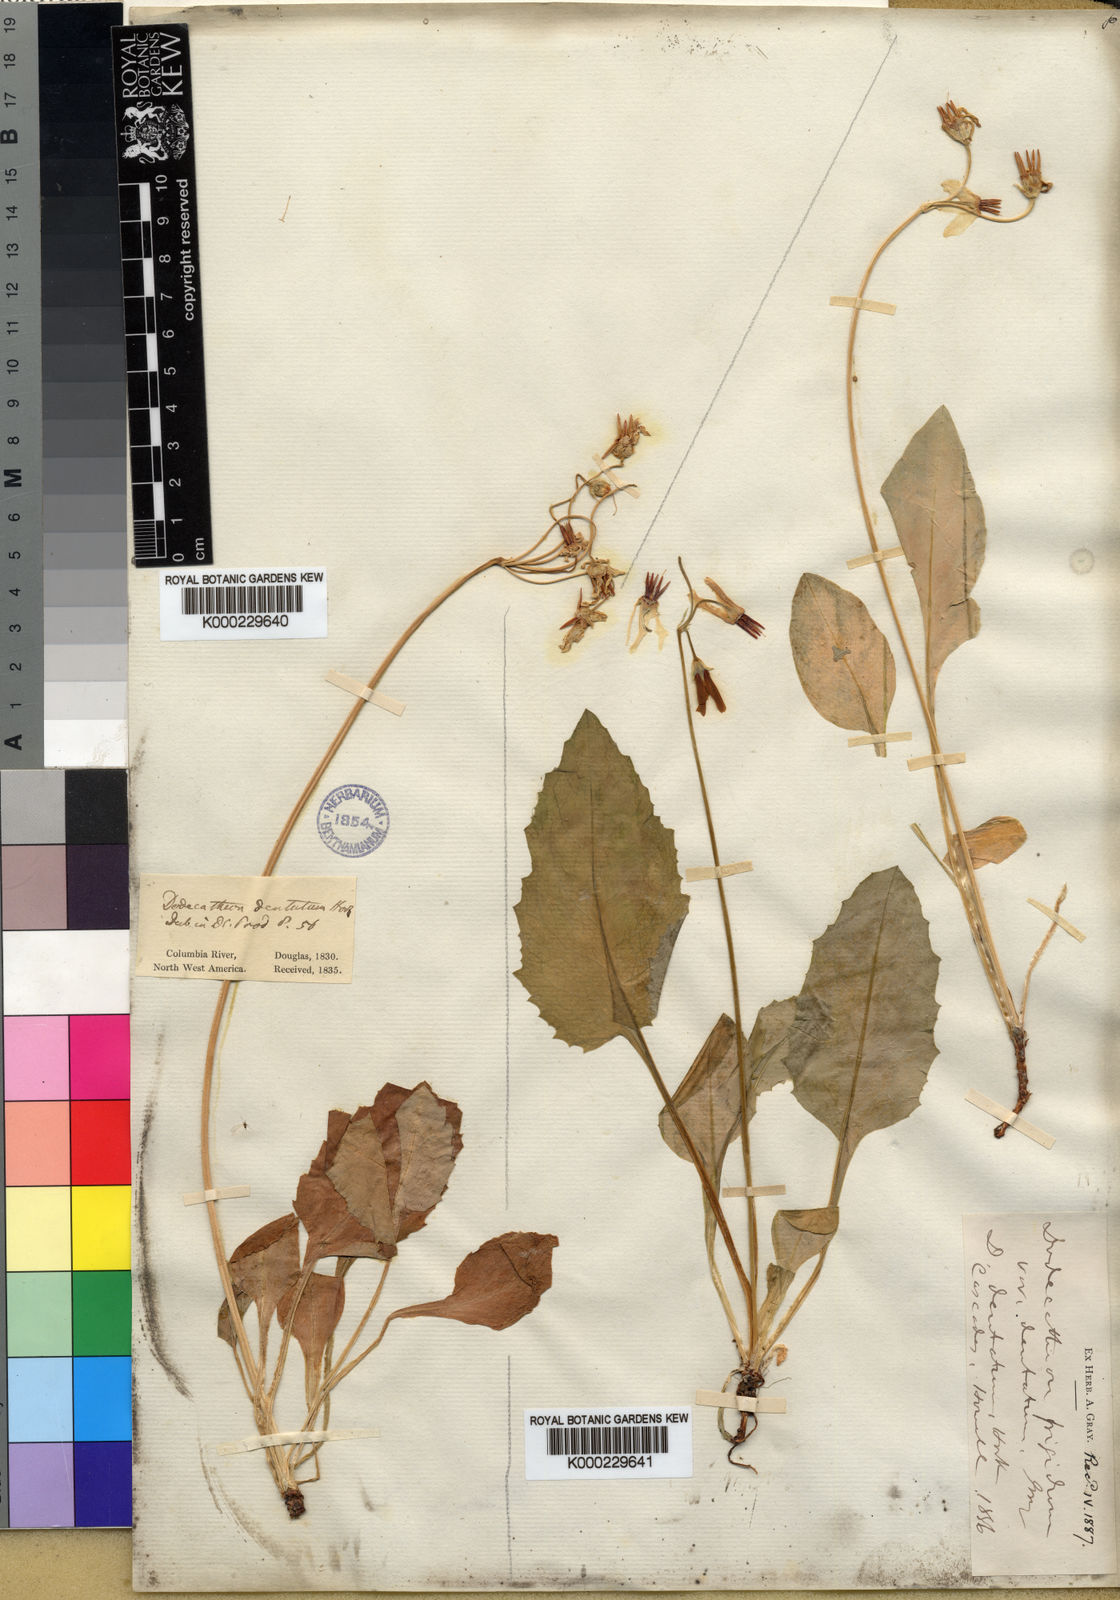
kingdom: Plantae
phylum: Tracheophyta
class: Magnoliopsida
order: Ericales
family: Primulaceae
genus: Dodecatheon
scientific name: Dodecatheon dentatum
